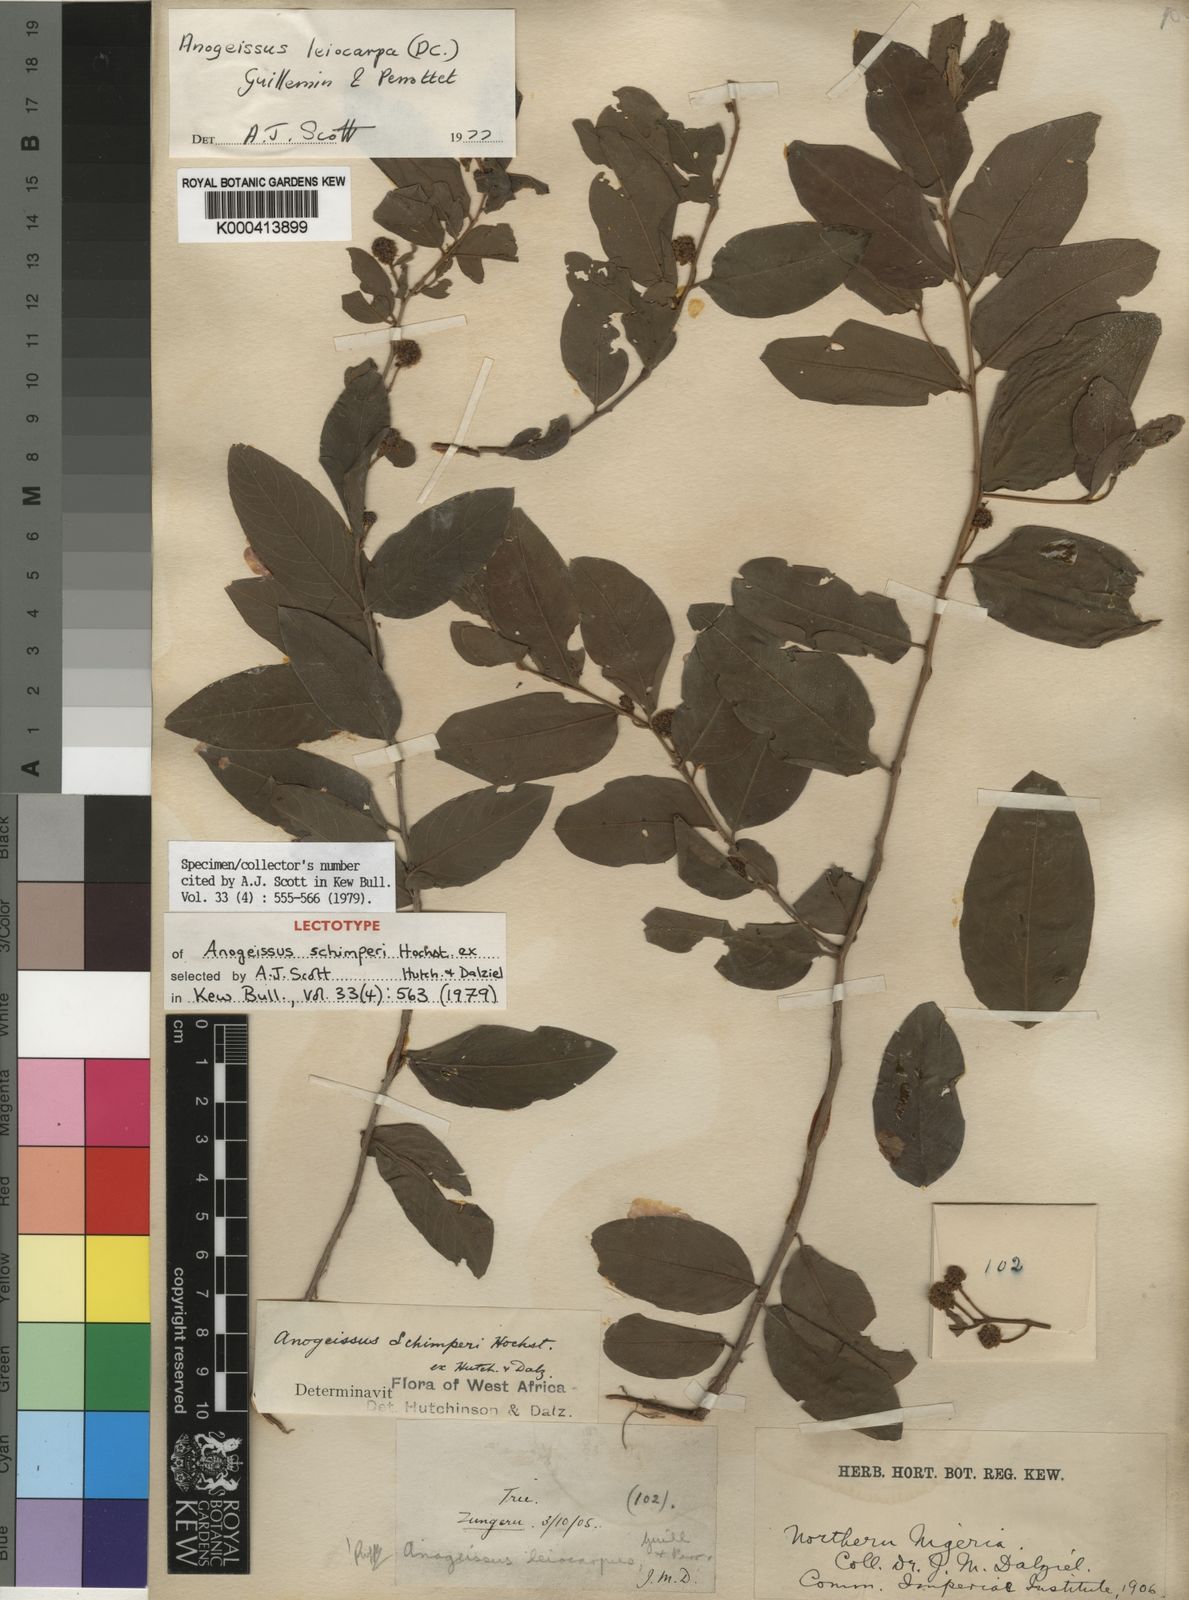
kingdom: Plantae
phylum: Tracheophyta
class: Magnoliopsida
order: Myrtales
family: Combretaceae
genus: Terminalia
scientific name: Terminalia leiocarpa
